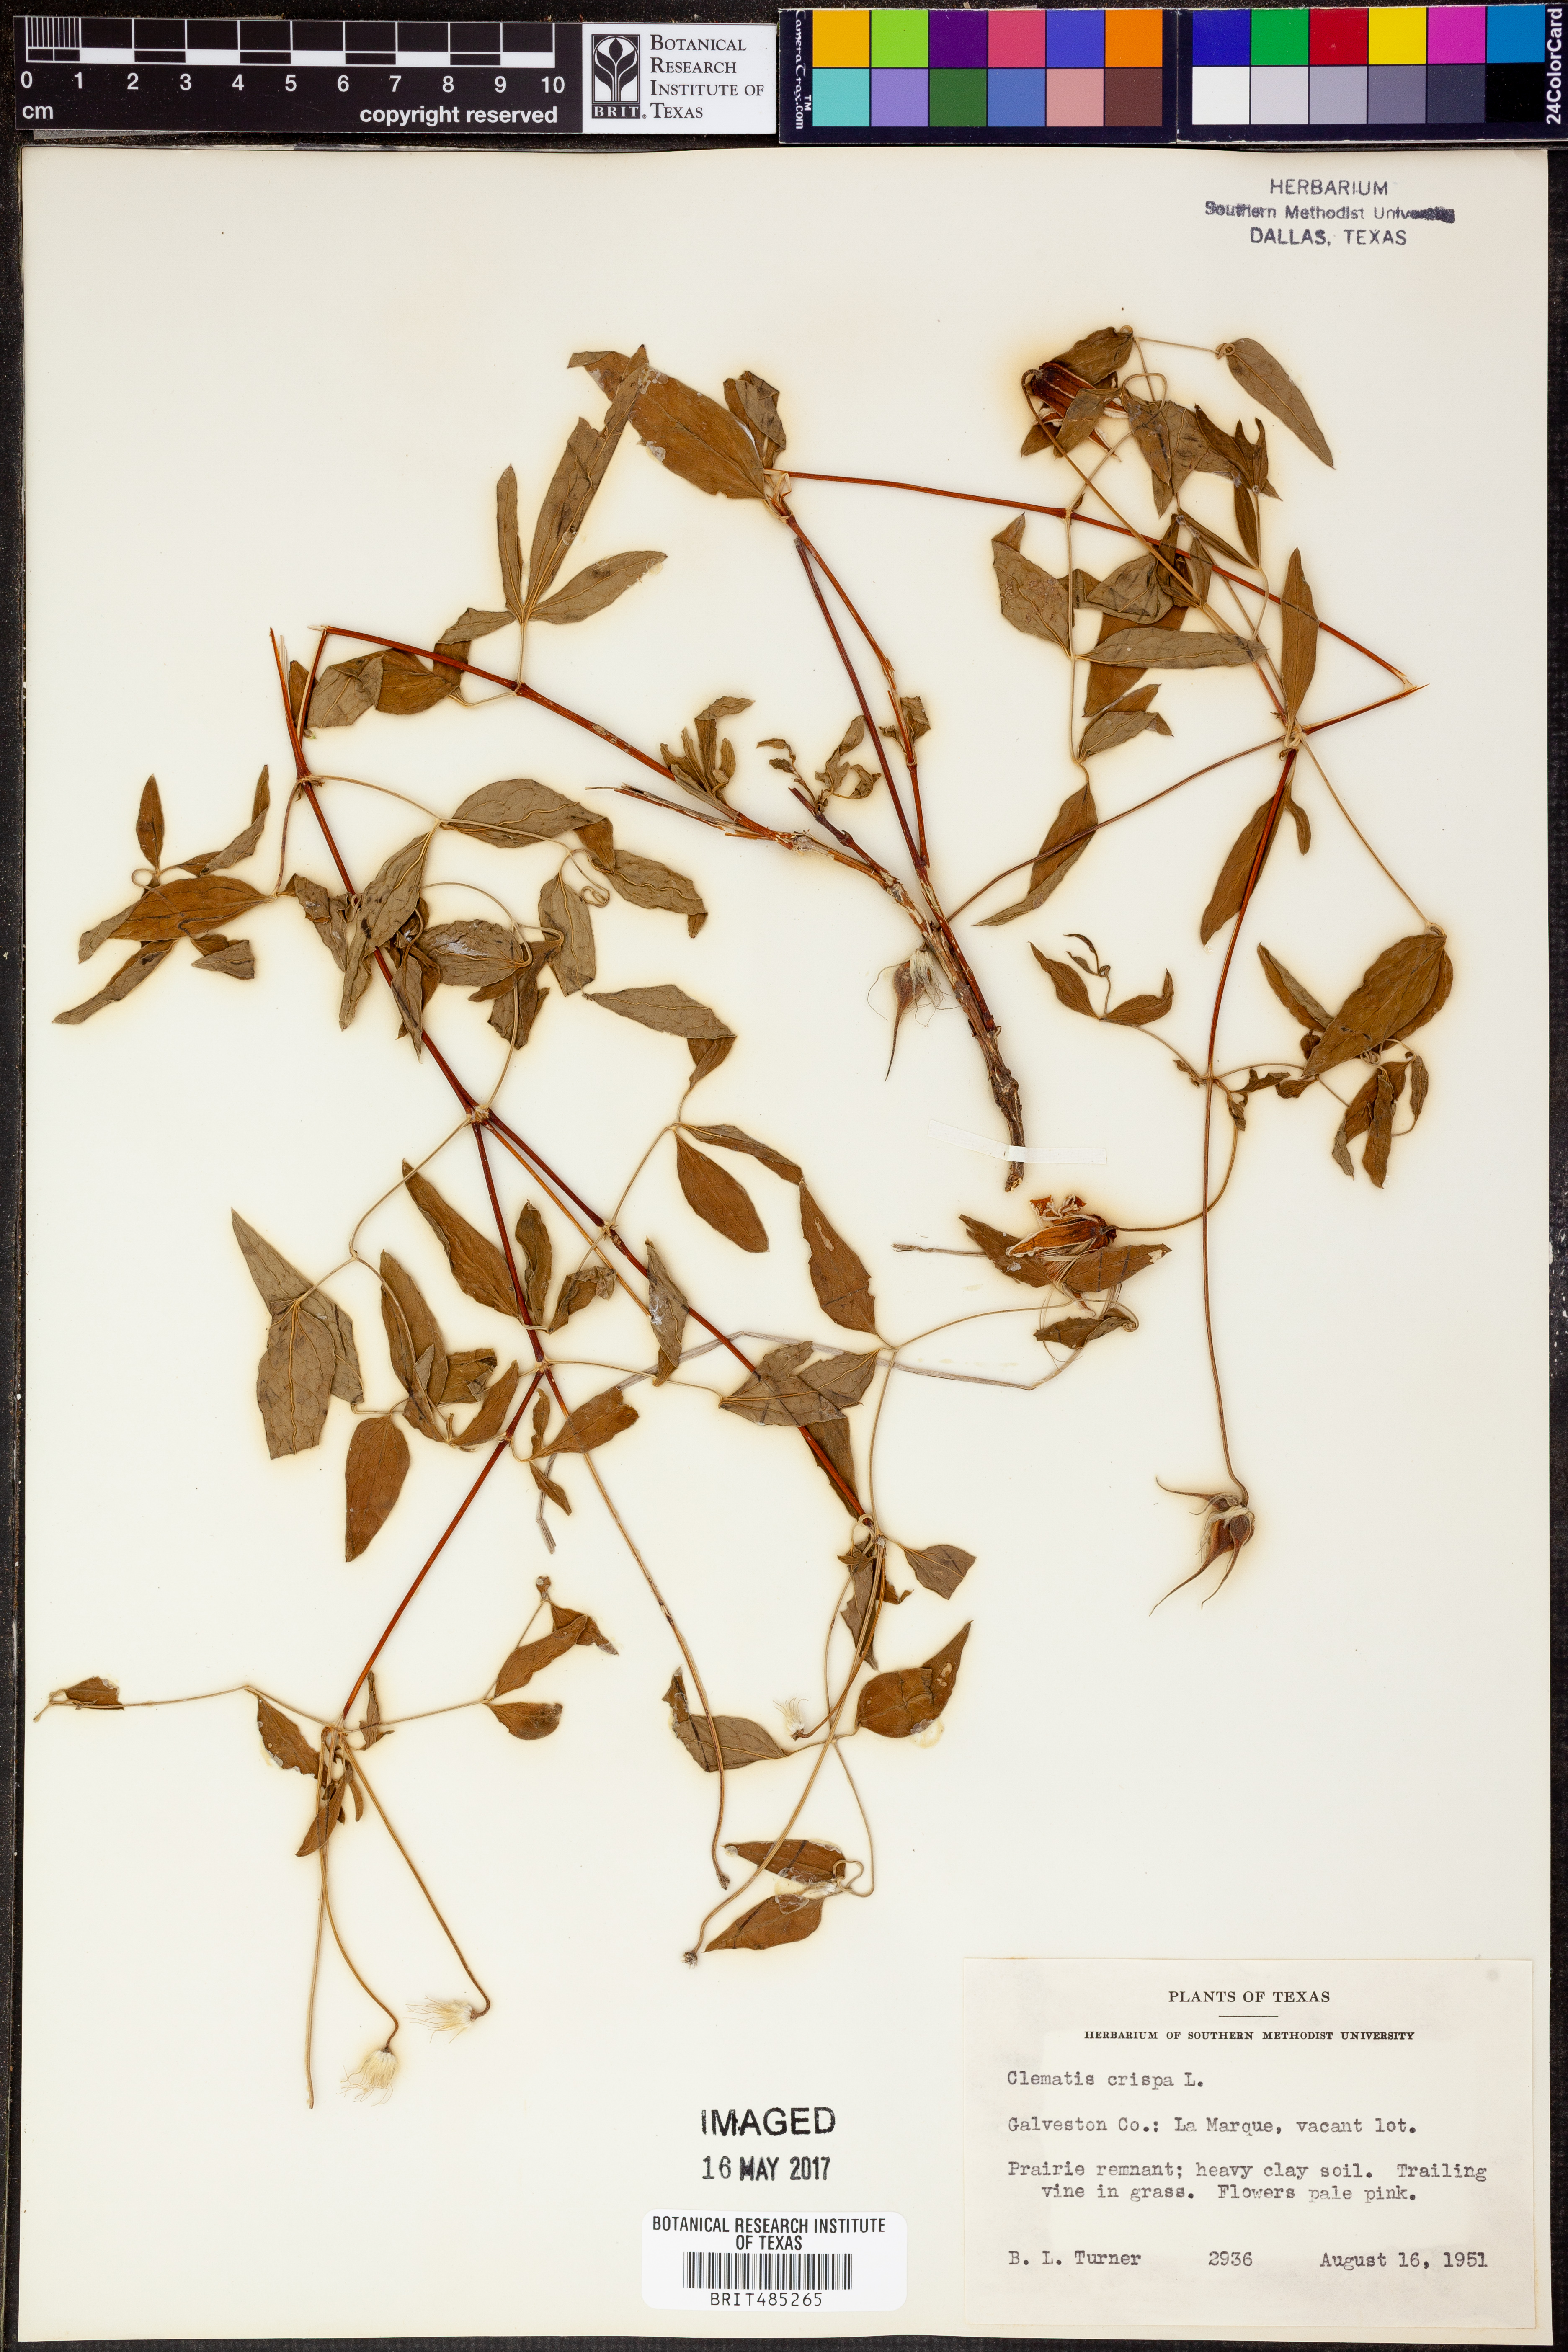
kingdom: Plantae
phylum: Tracheophyta
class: Magnoliopsida
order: Ranunculales
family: Ranunculaceae
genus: Clematis
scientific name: Clematis crispa
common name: Curly clematis
